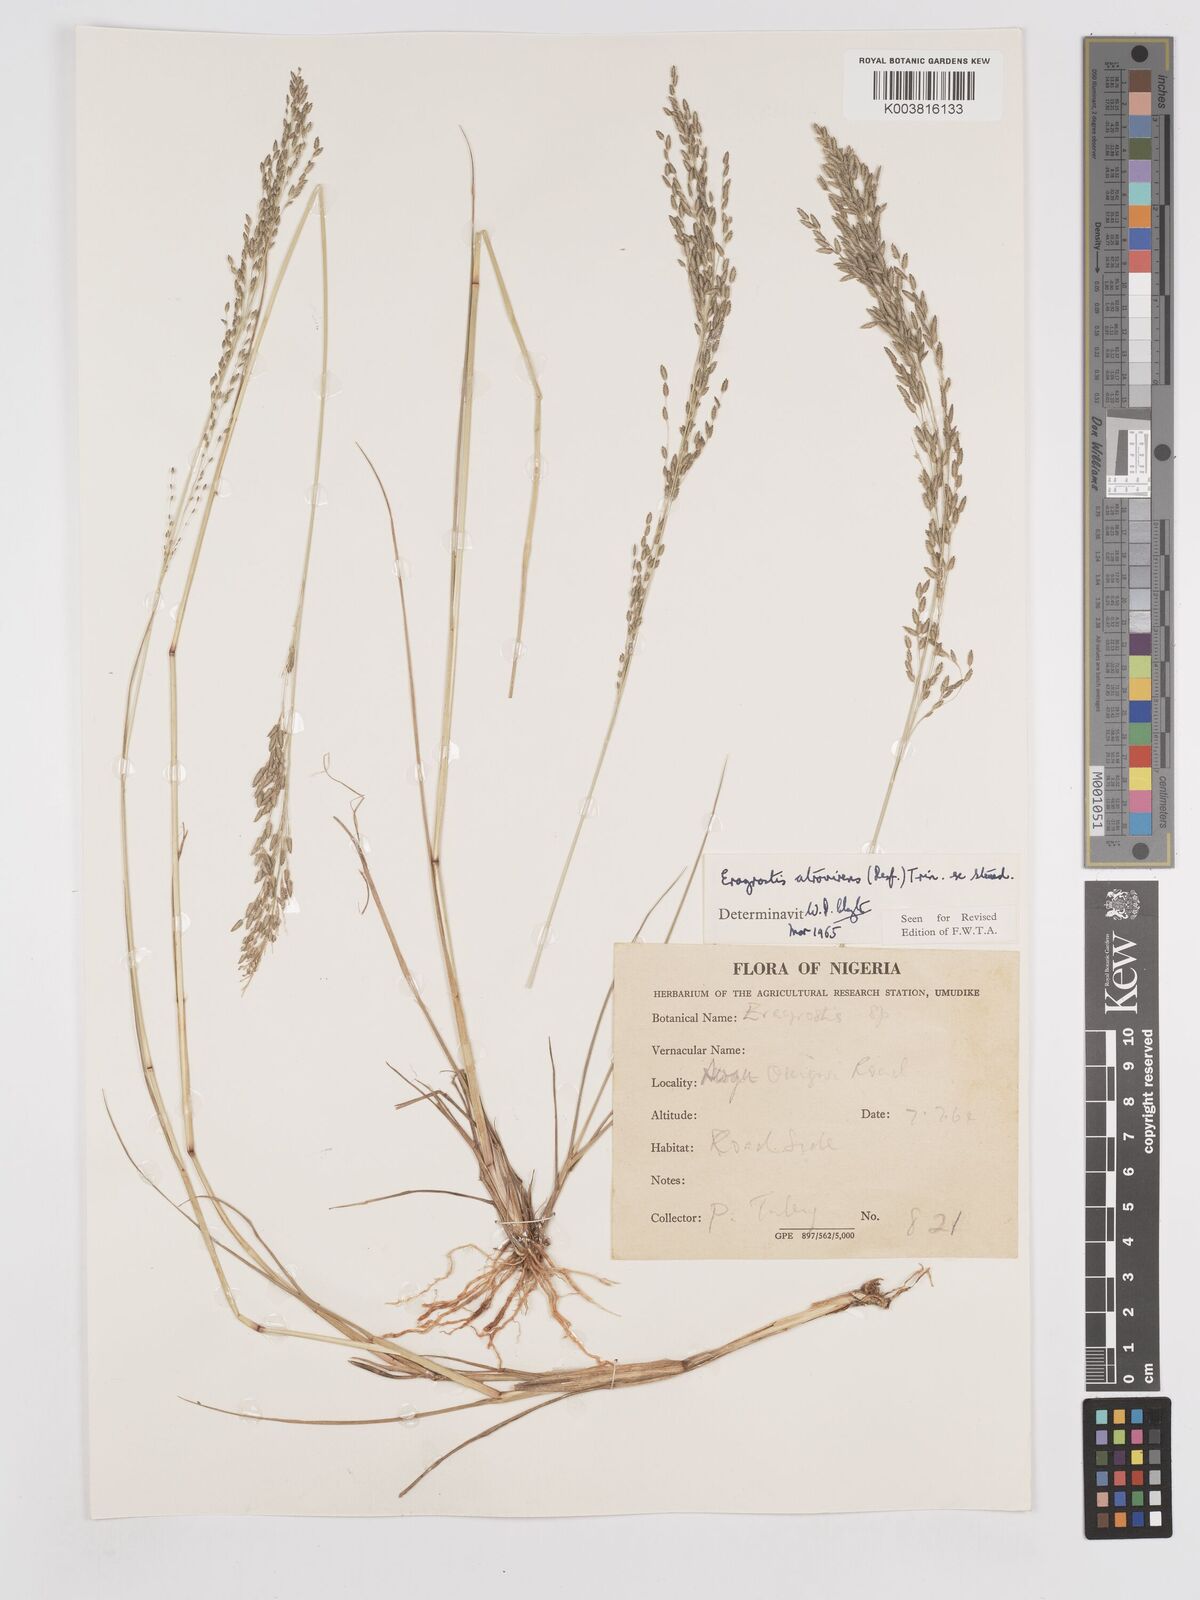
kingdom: Plantae
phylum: Tracheophyta
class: Liliopsida
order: Poales
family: Poaceae
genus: Eragrostis
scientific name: Eragrostis atrovirens
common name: Thalia lovegrass
